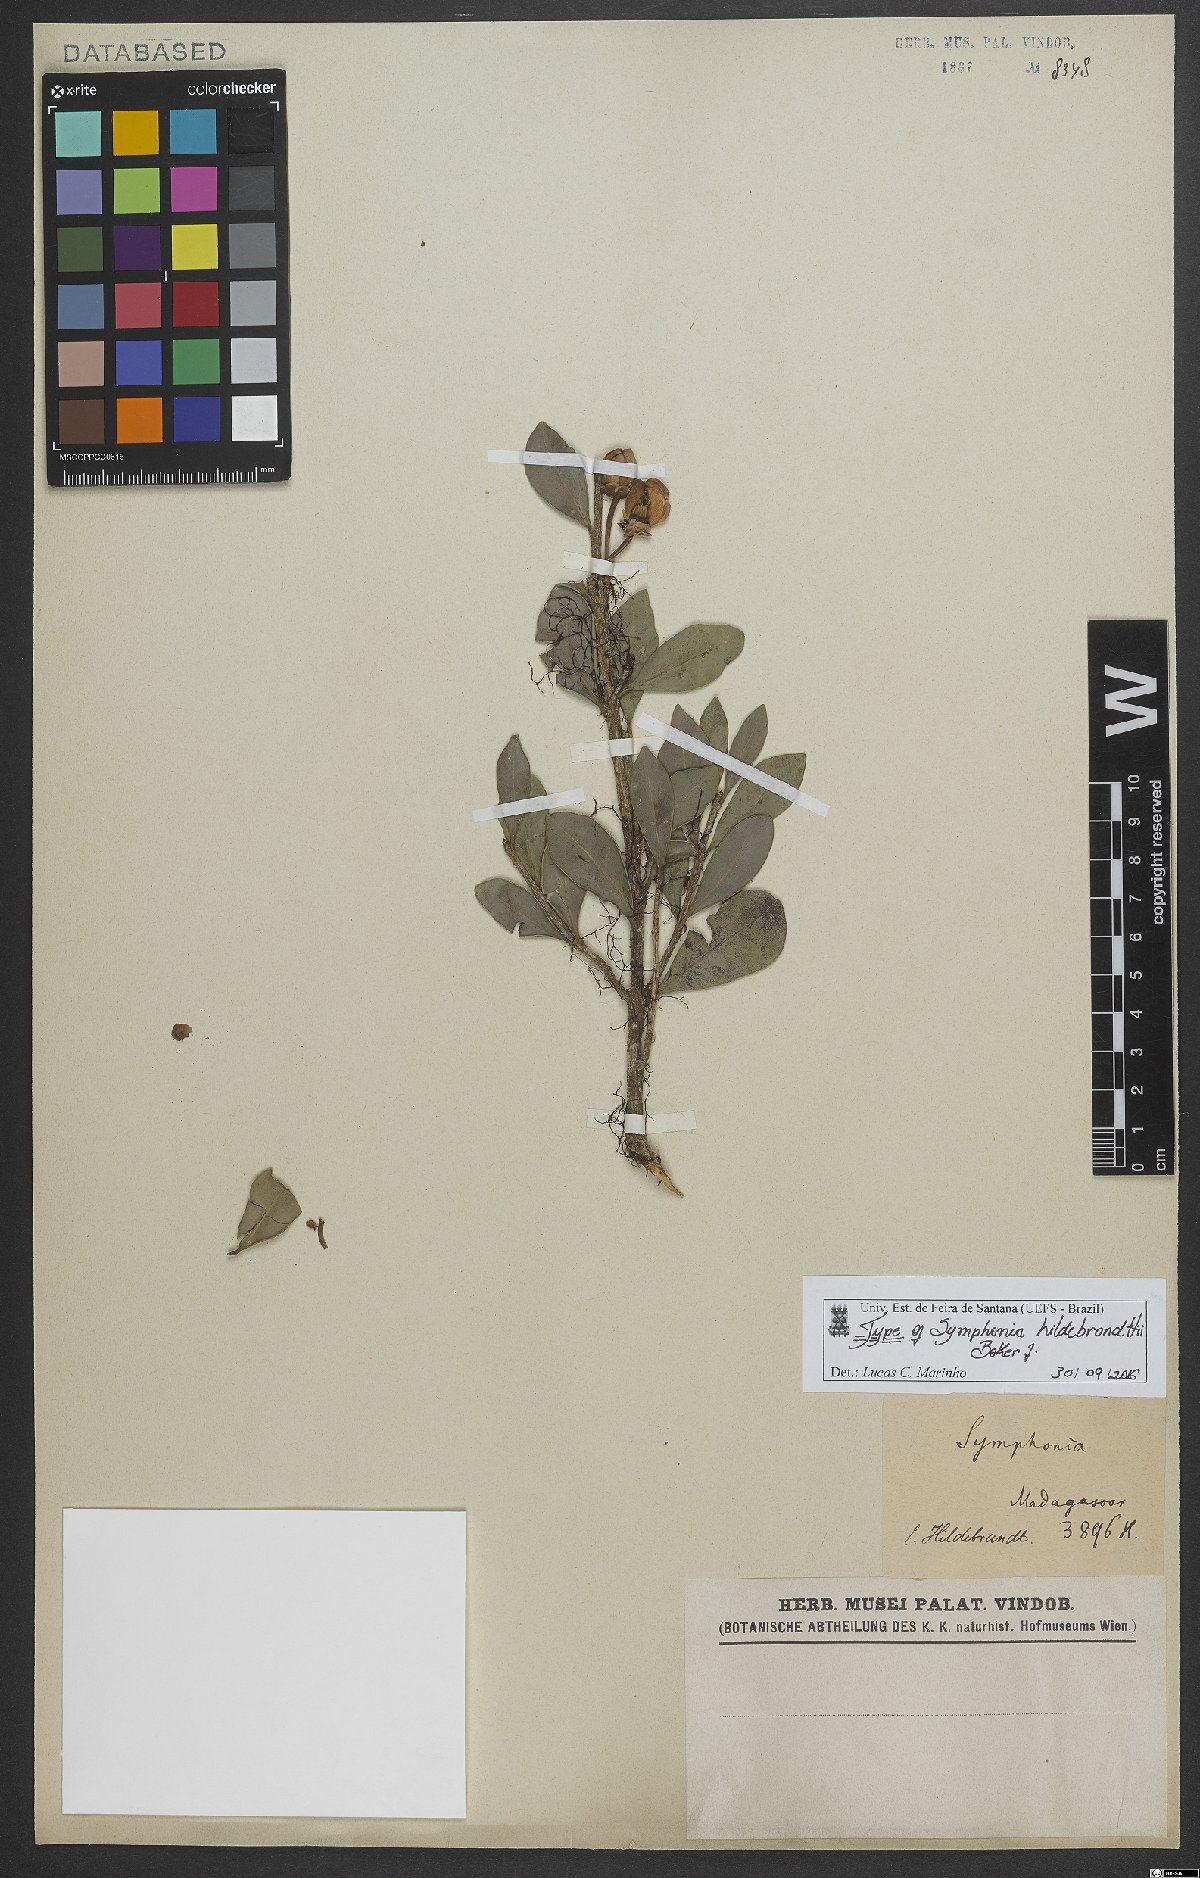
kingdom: Plantae
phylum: Tracheophyta
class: Magnoliopsida
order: Malpighiales
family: Clusiaceae
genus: Symphonia
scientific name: Symphonia gymnoclada
